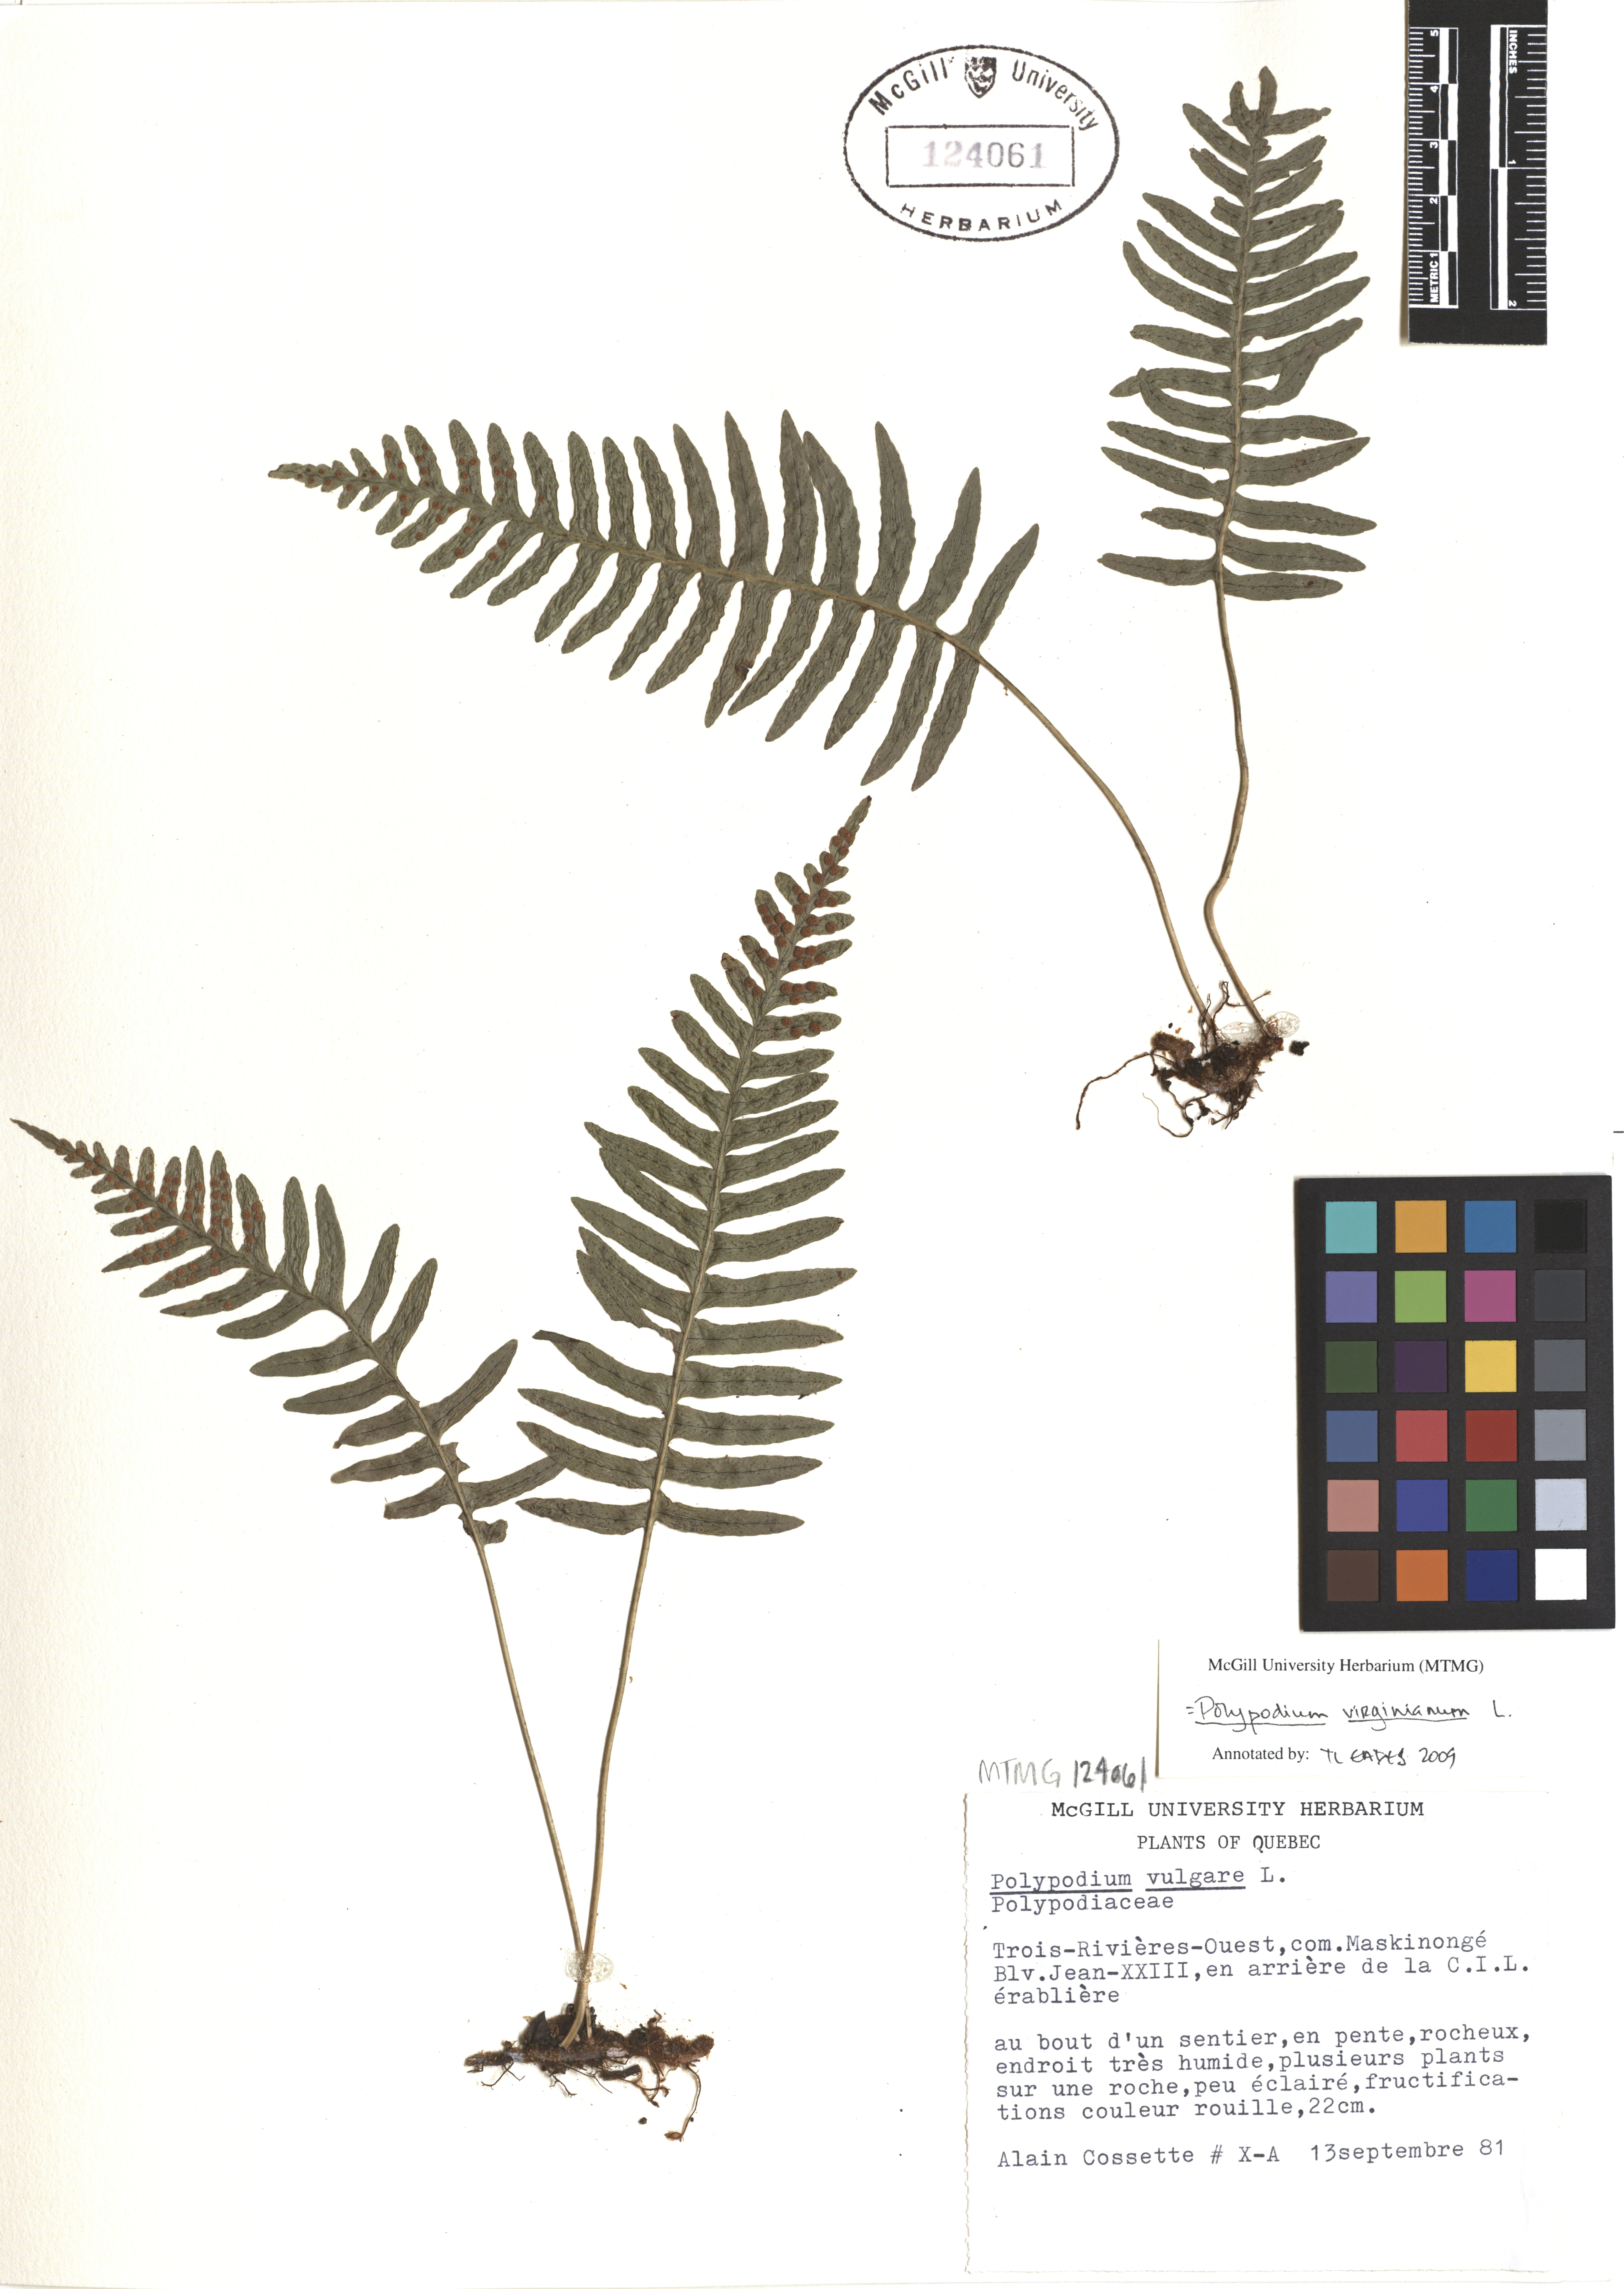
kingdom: Plantae
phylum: Tracheophyta
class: Polypodiopsida
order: Polypodiales
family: Polypodiaceae
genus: Polypodium
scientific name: Polypodium virginianum
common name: American wall fern
